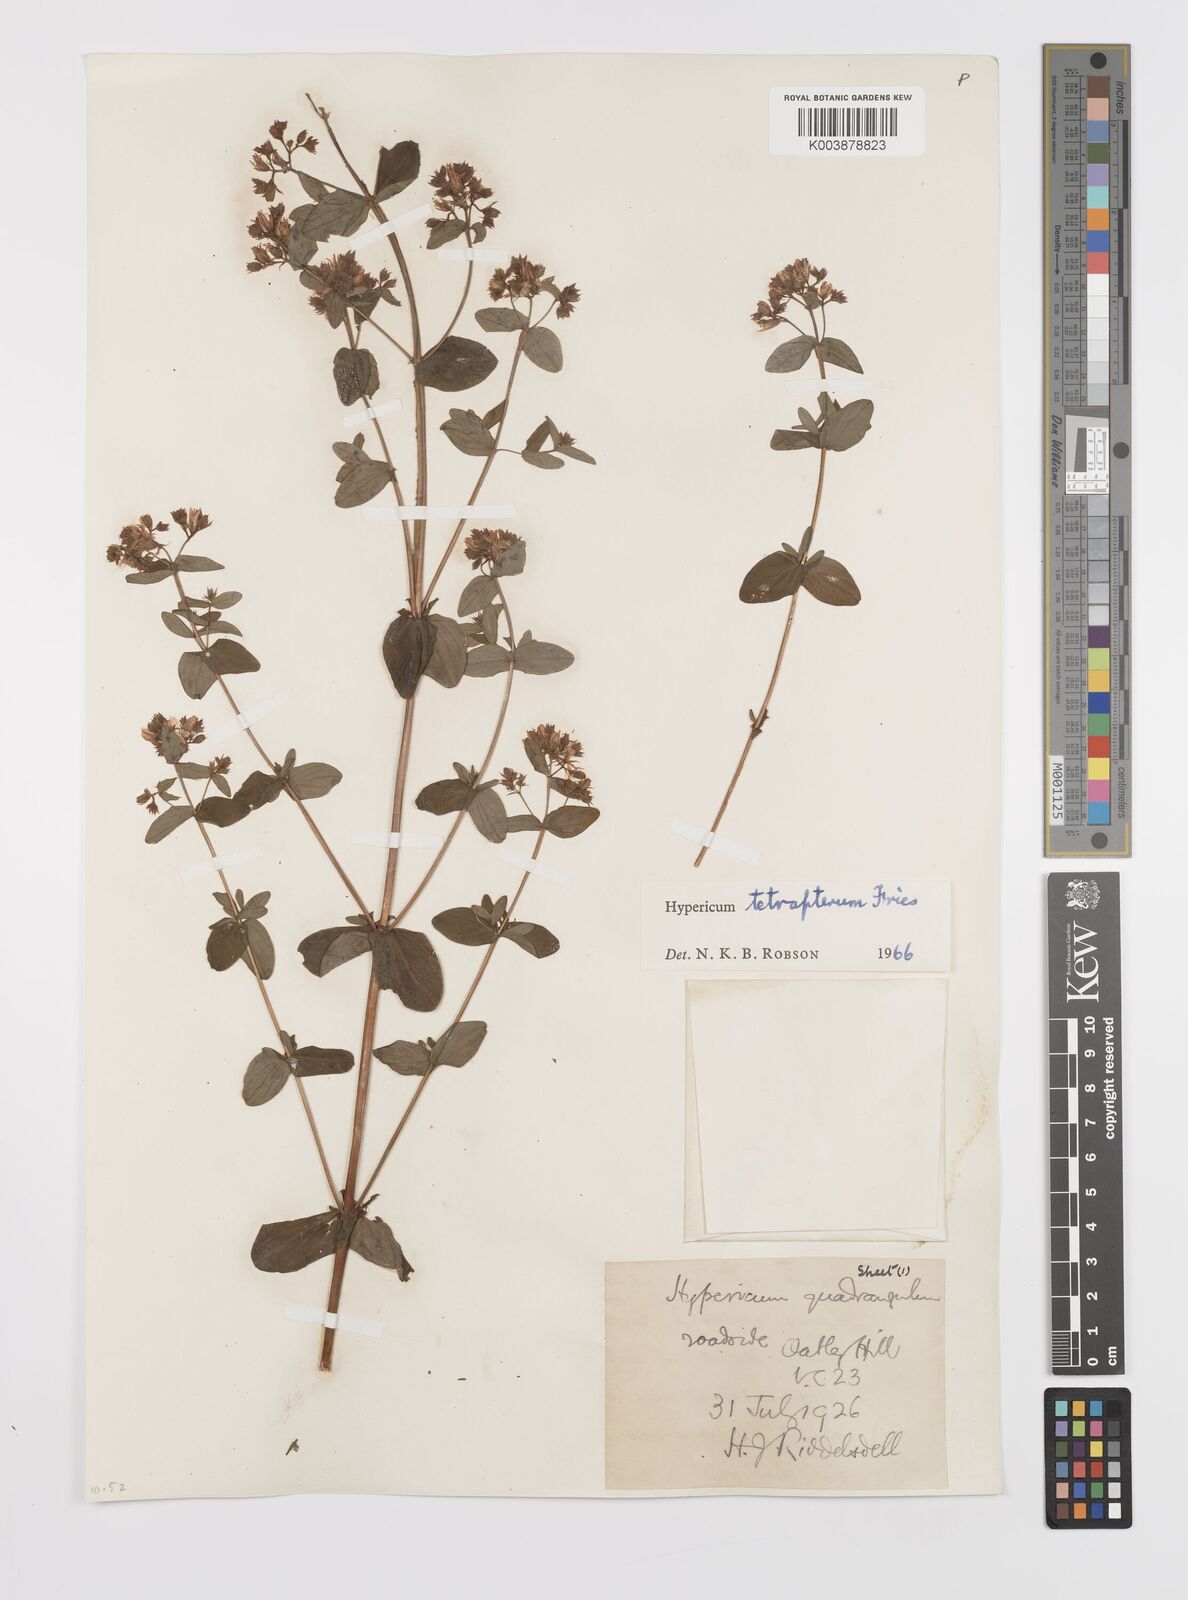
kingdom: Plantae
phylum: Tracheophyta
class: Magnoliopsida
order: Malpighiales
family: Hypericaceae
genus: Hypericum
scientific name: Hypericum tetrapterum
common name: Square-stalked st. john's-wort
